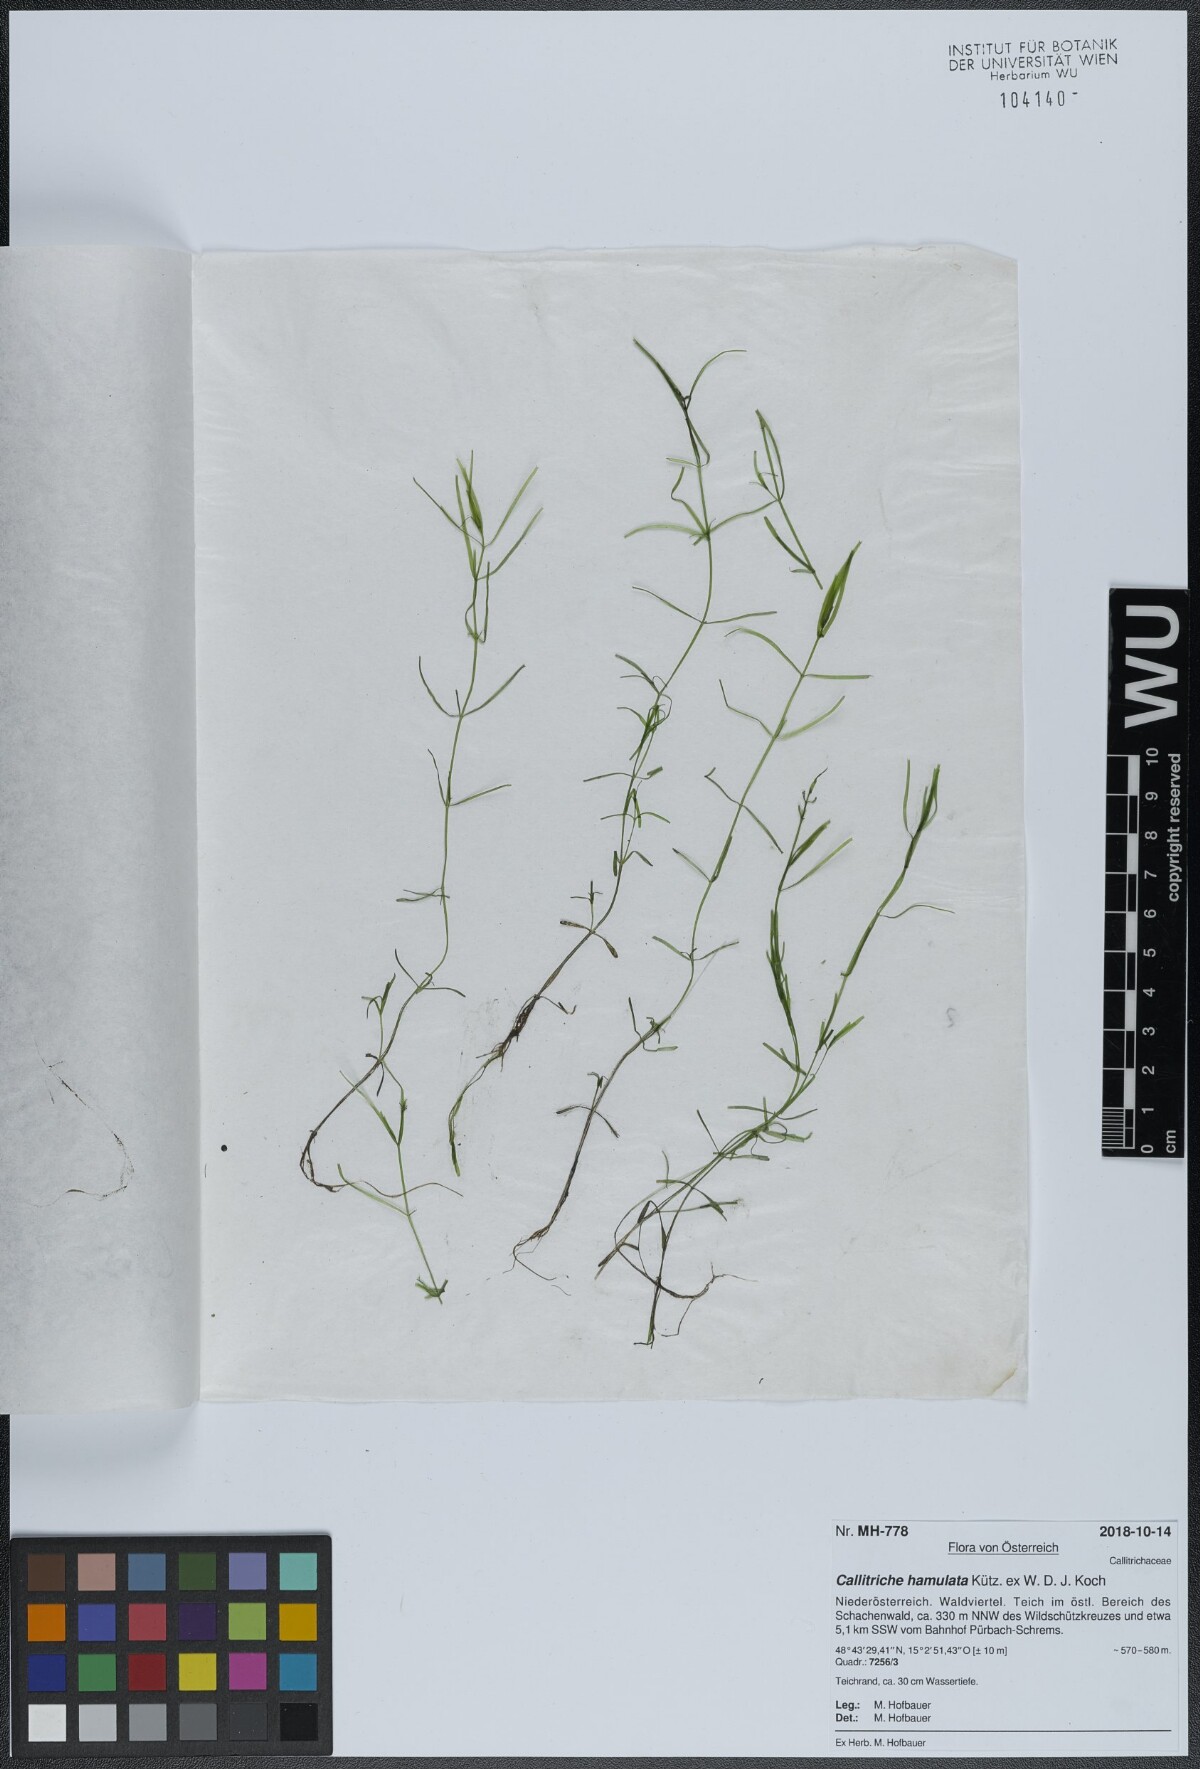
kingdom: Plantae
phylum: Tracheophyta
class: Magnoliopsida
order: Lamiales
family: Plantaginaceae
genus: Callitriche
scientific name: Callitriche hamulata
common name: Intermediate water-starwort
